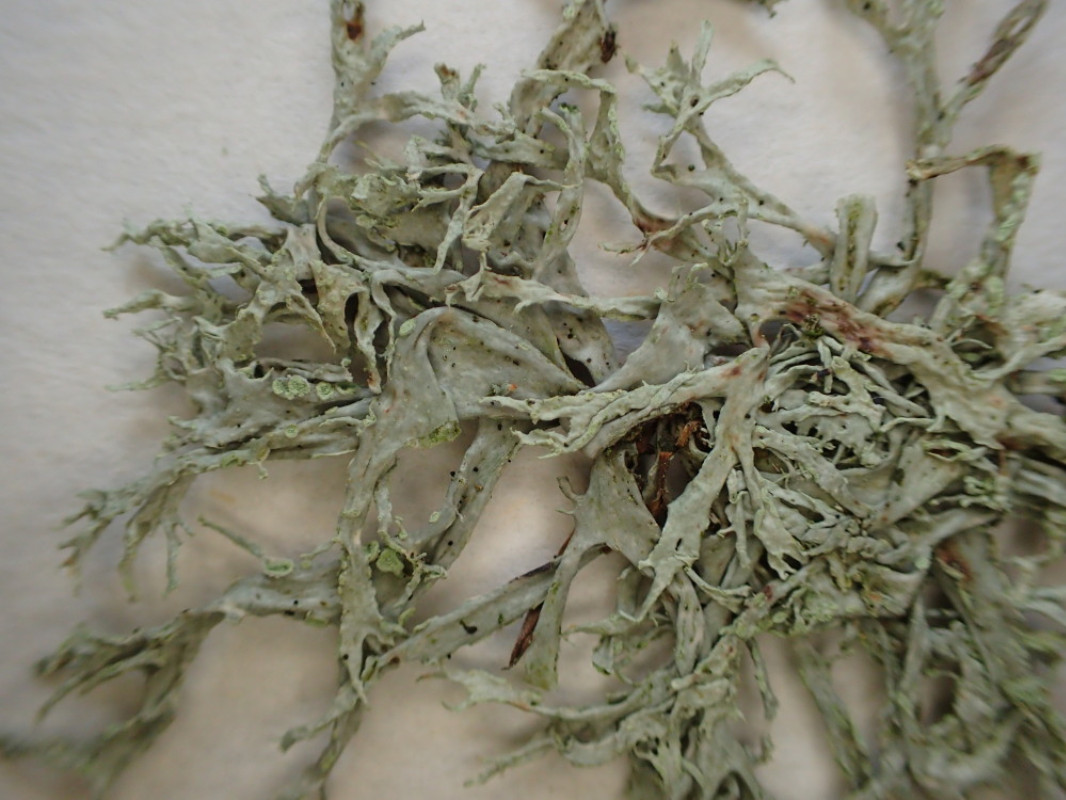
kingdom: Fungi
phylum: Ascomycota
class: Lecanoromycetes
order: Lecanorales
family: Ramalinaceae
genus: Ramalina
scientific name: Ramalina farinacea
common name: melet grenlav
